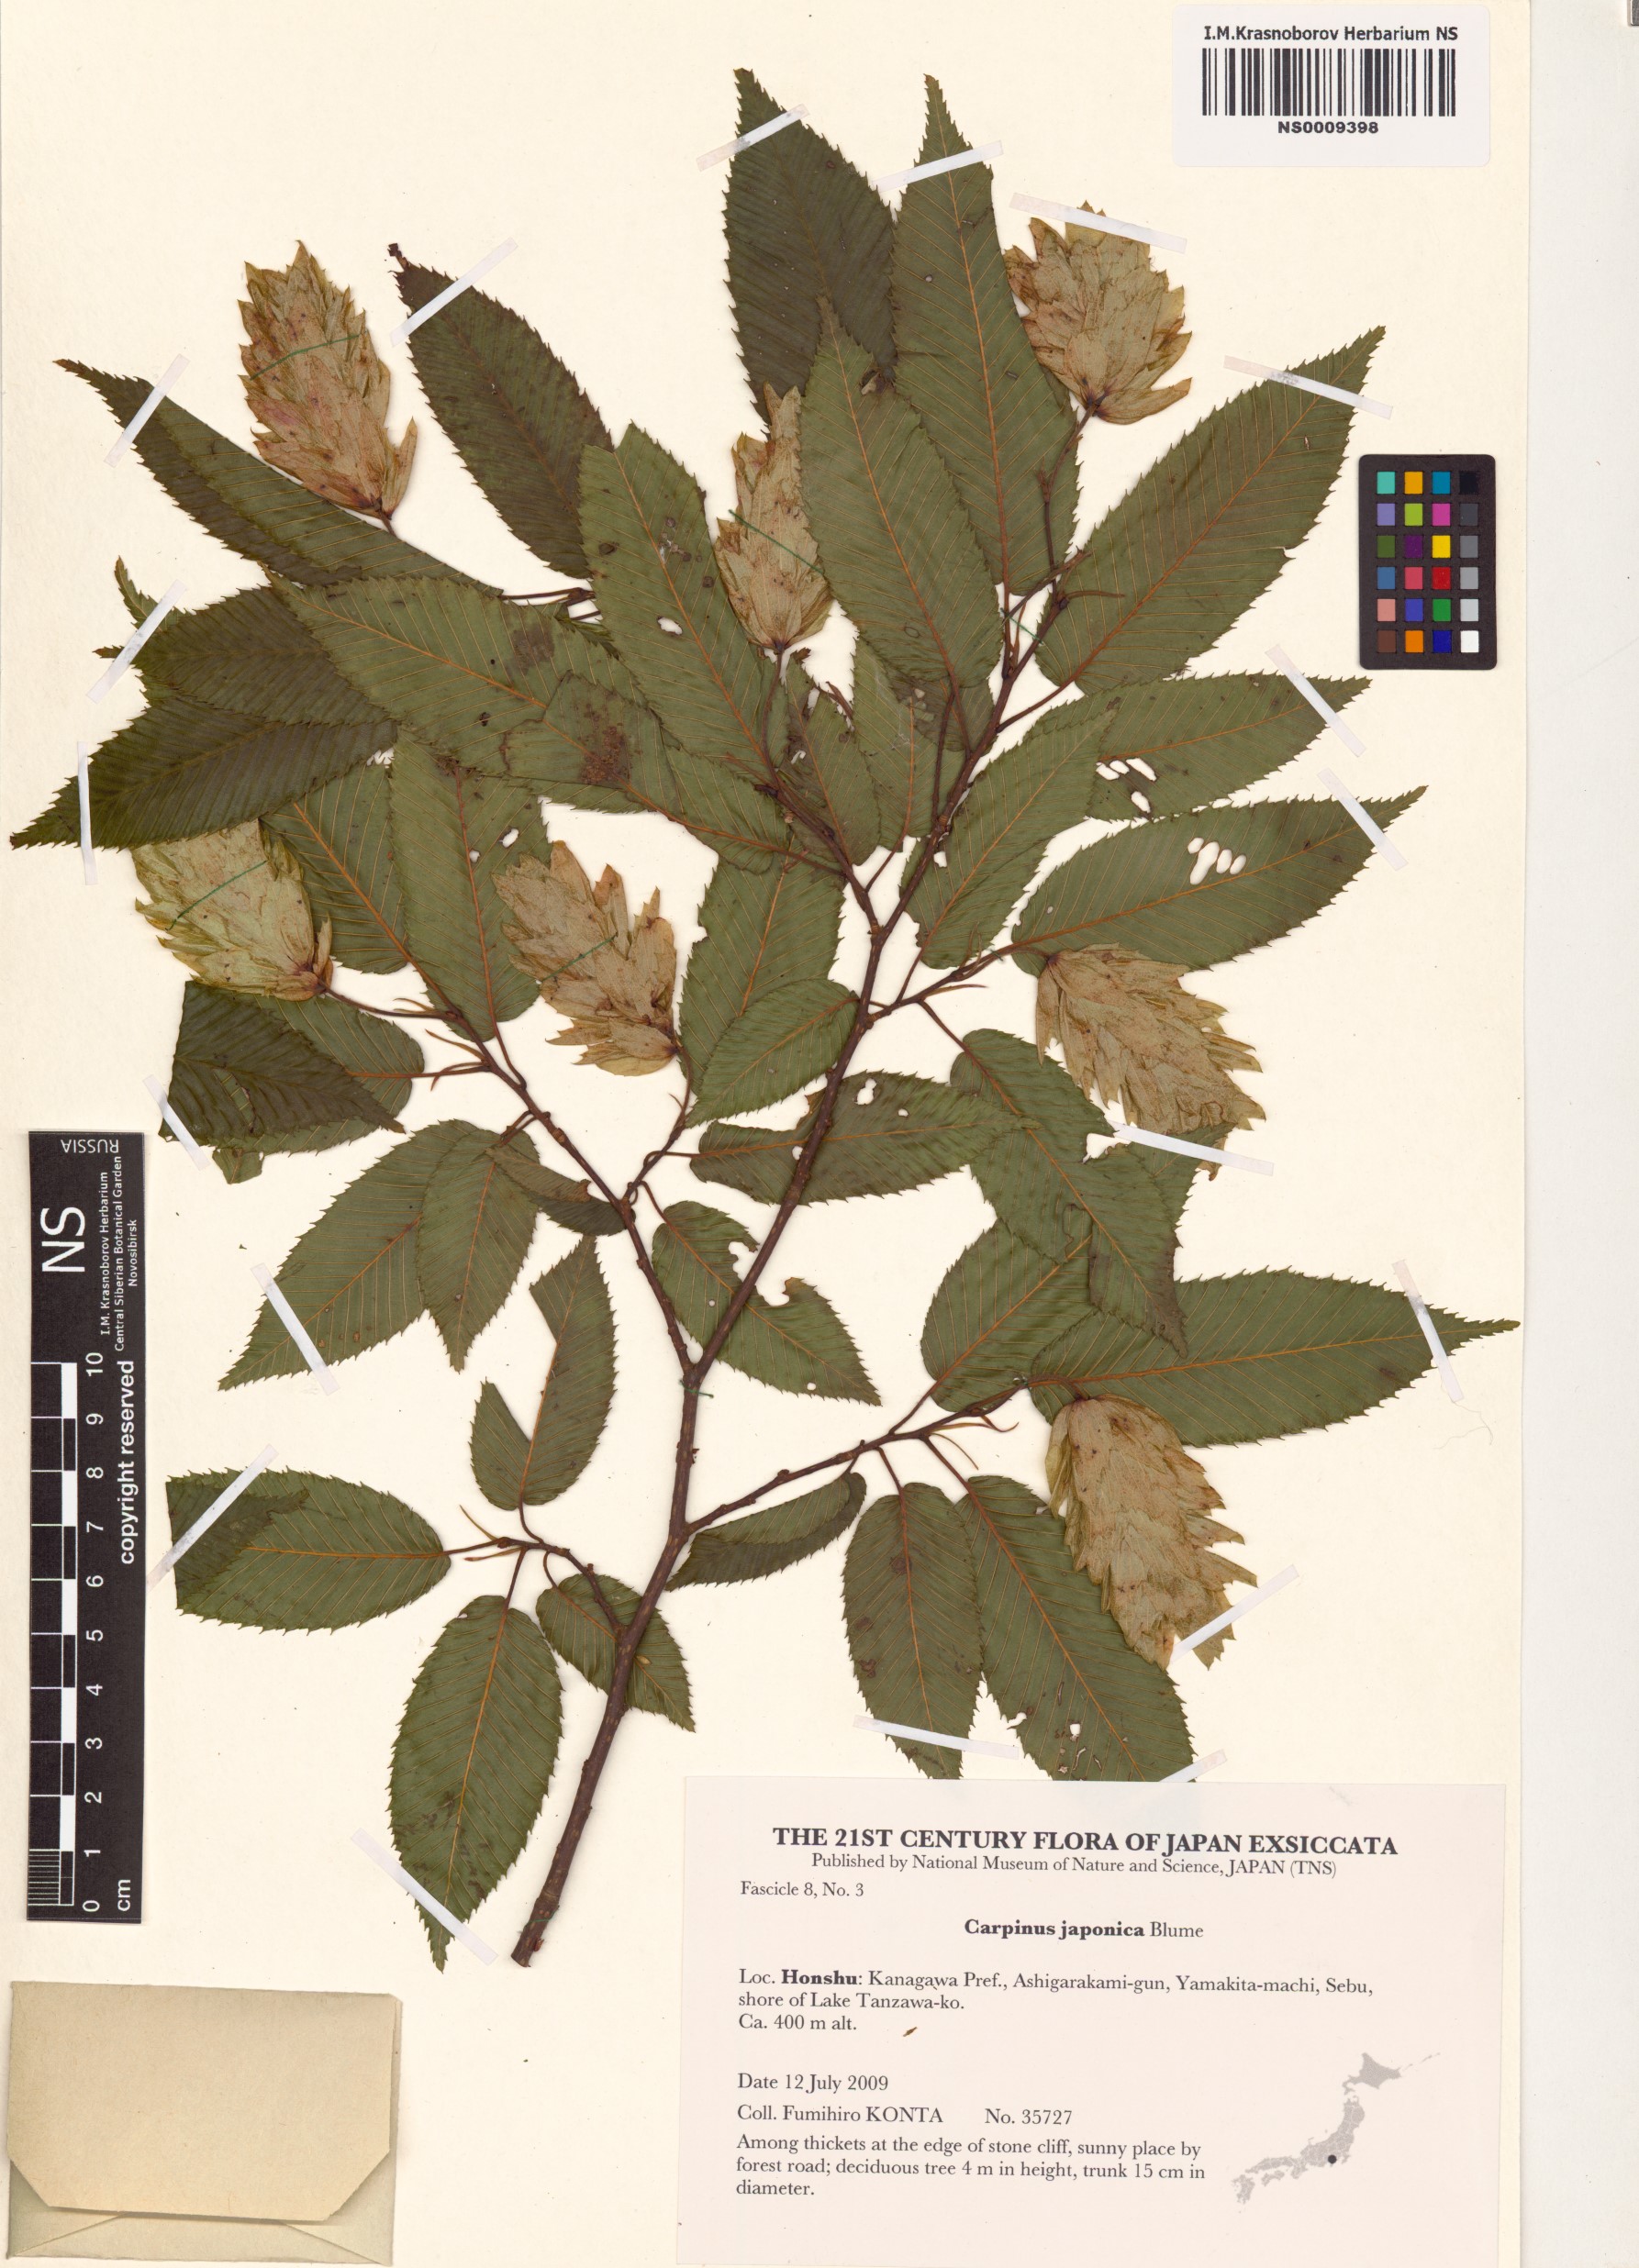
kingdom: Plantae
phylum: Tracheophyta
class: Magnoliopsida
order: Fagales
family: Betulaceae
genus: Carpinus
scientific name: Carpinus japonica
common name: Japanese hornbeam
